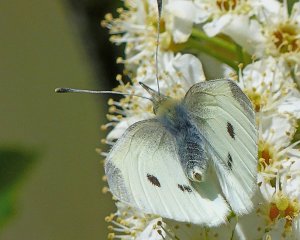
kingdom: Animalia
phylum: Arthropoda
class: Insecta
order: Lepidoptera
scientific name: Lepidoptera
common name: Butterflies
